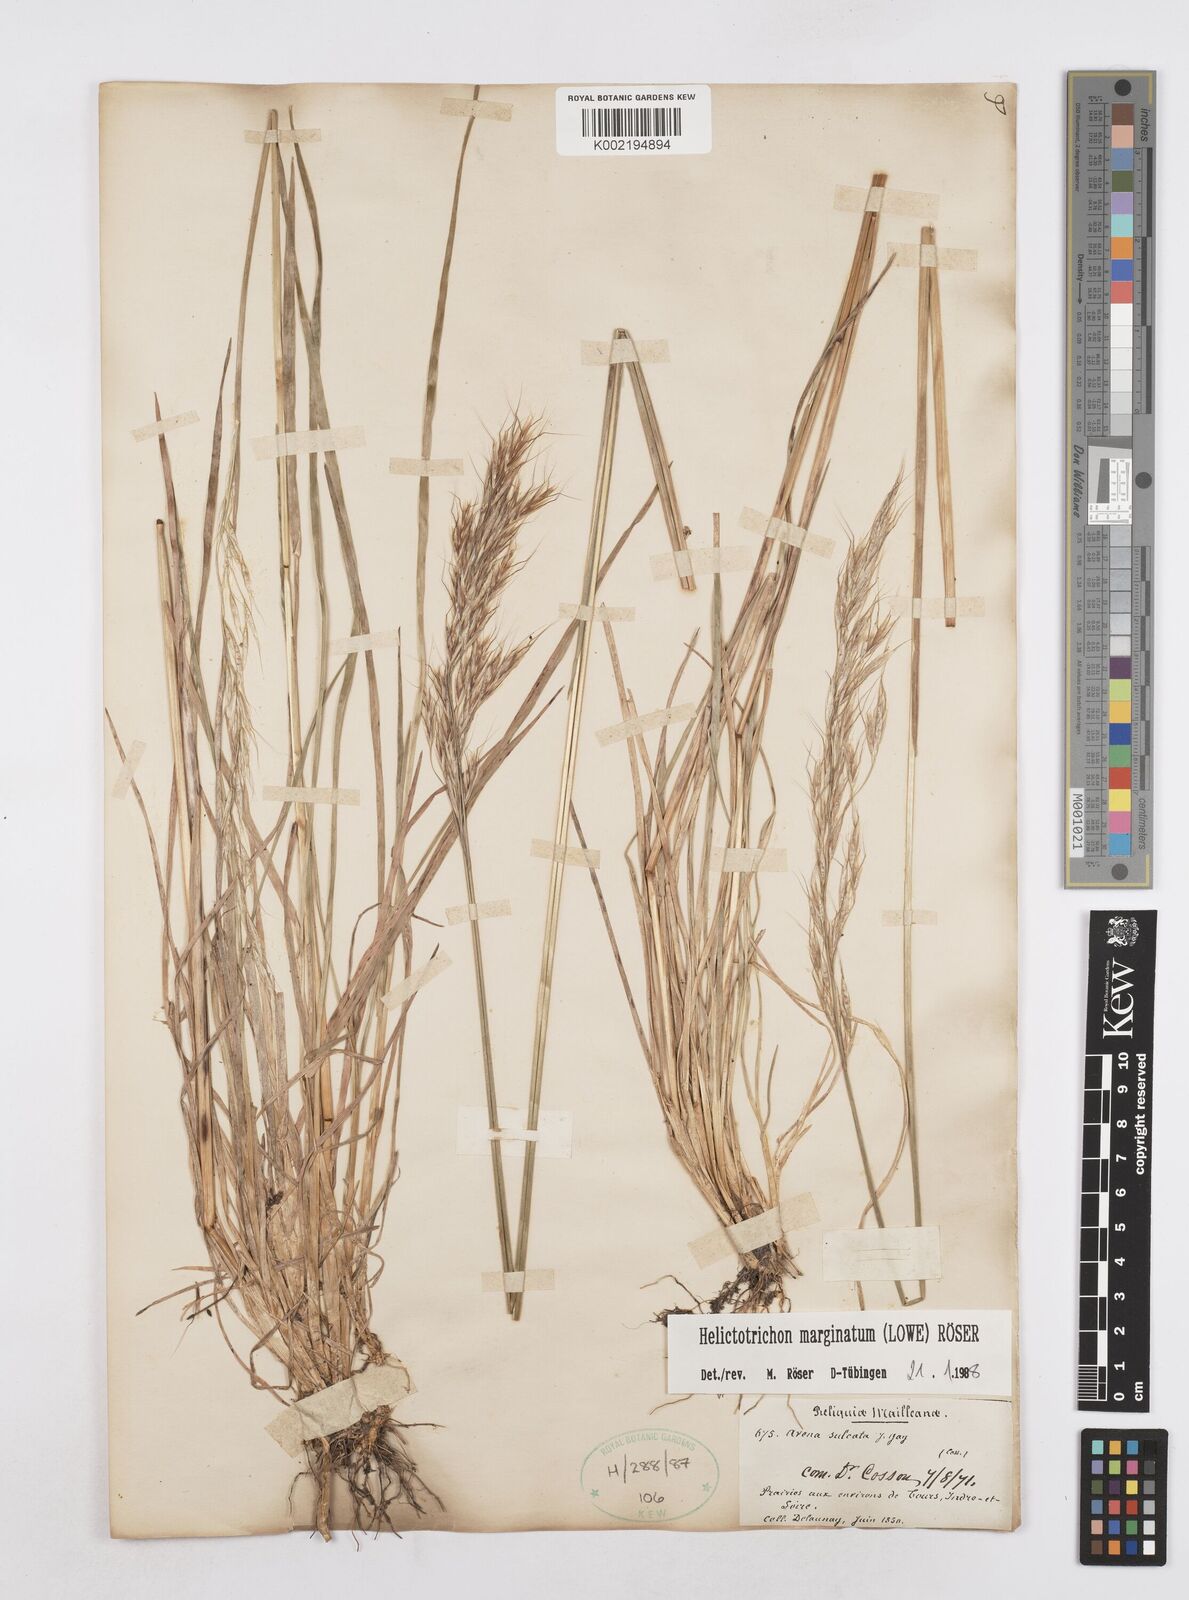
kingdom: Plantae
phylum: Tracheophyta
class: Liliopsida
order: Poales
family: Poaceae
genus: Helictotrichon
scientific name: Helictotrichon
